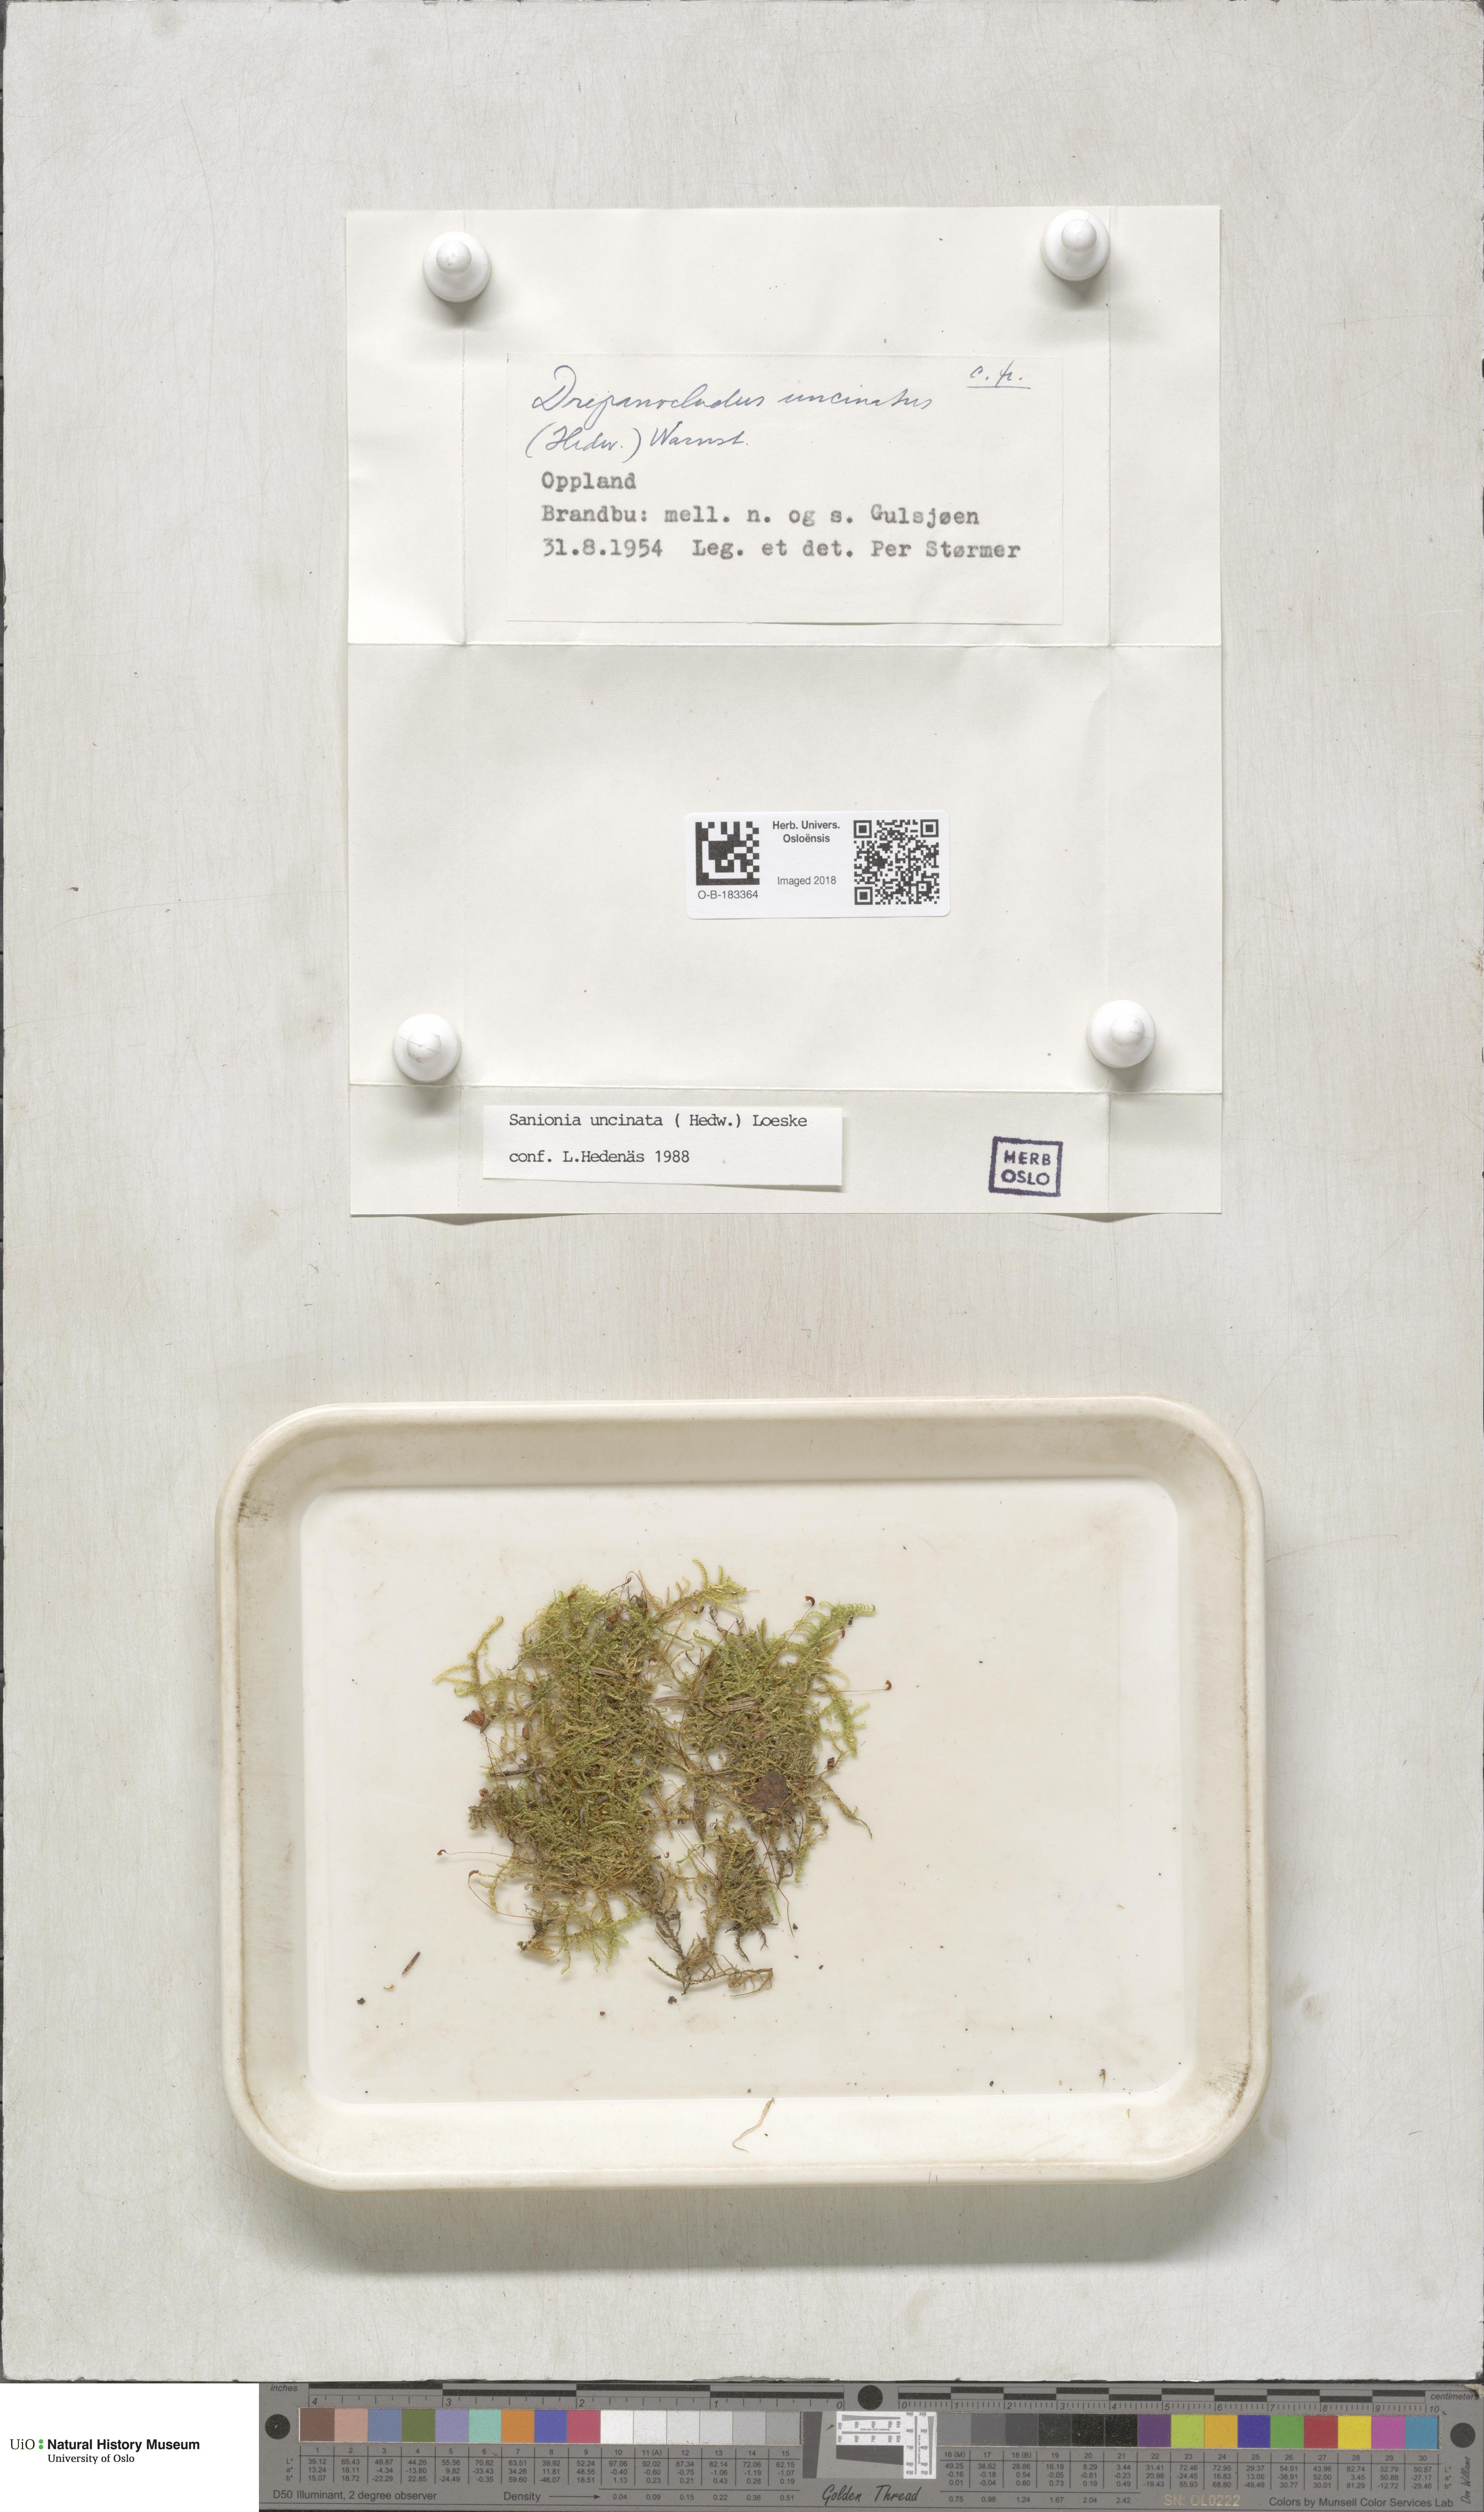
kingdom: Plantae
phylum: Bryophyta
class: Bryopsida
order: Hypnales
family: Scorpidiaceae
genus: Sanionia
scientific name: Sanionia uncinata
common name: Sickle moss
